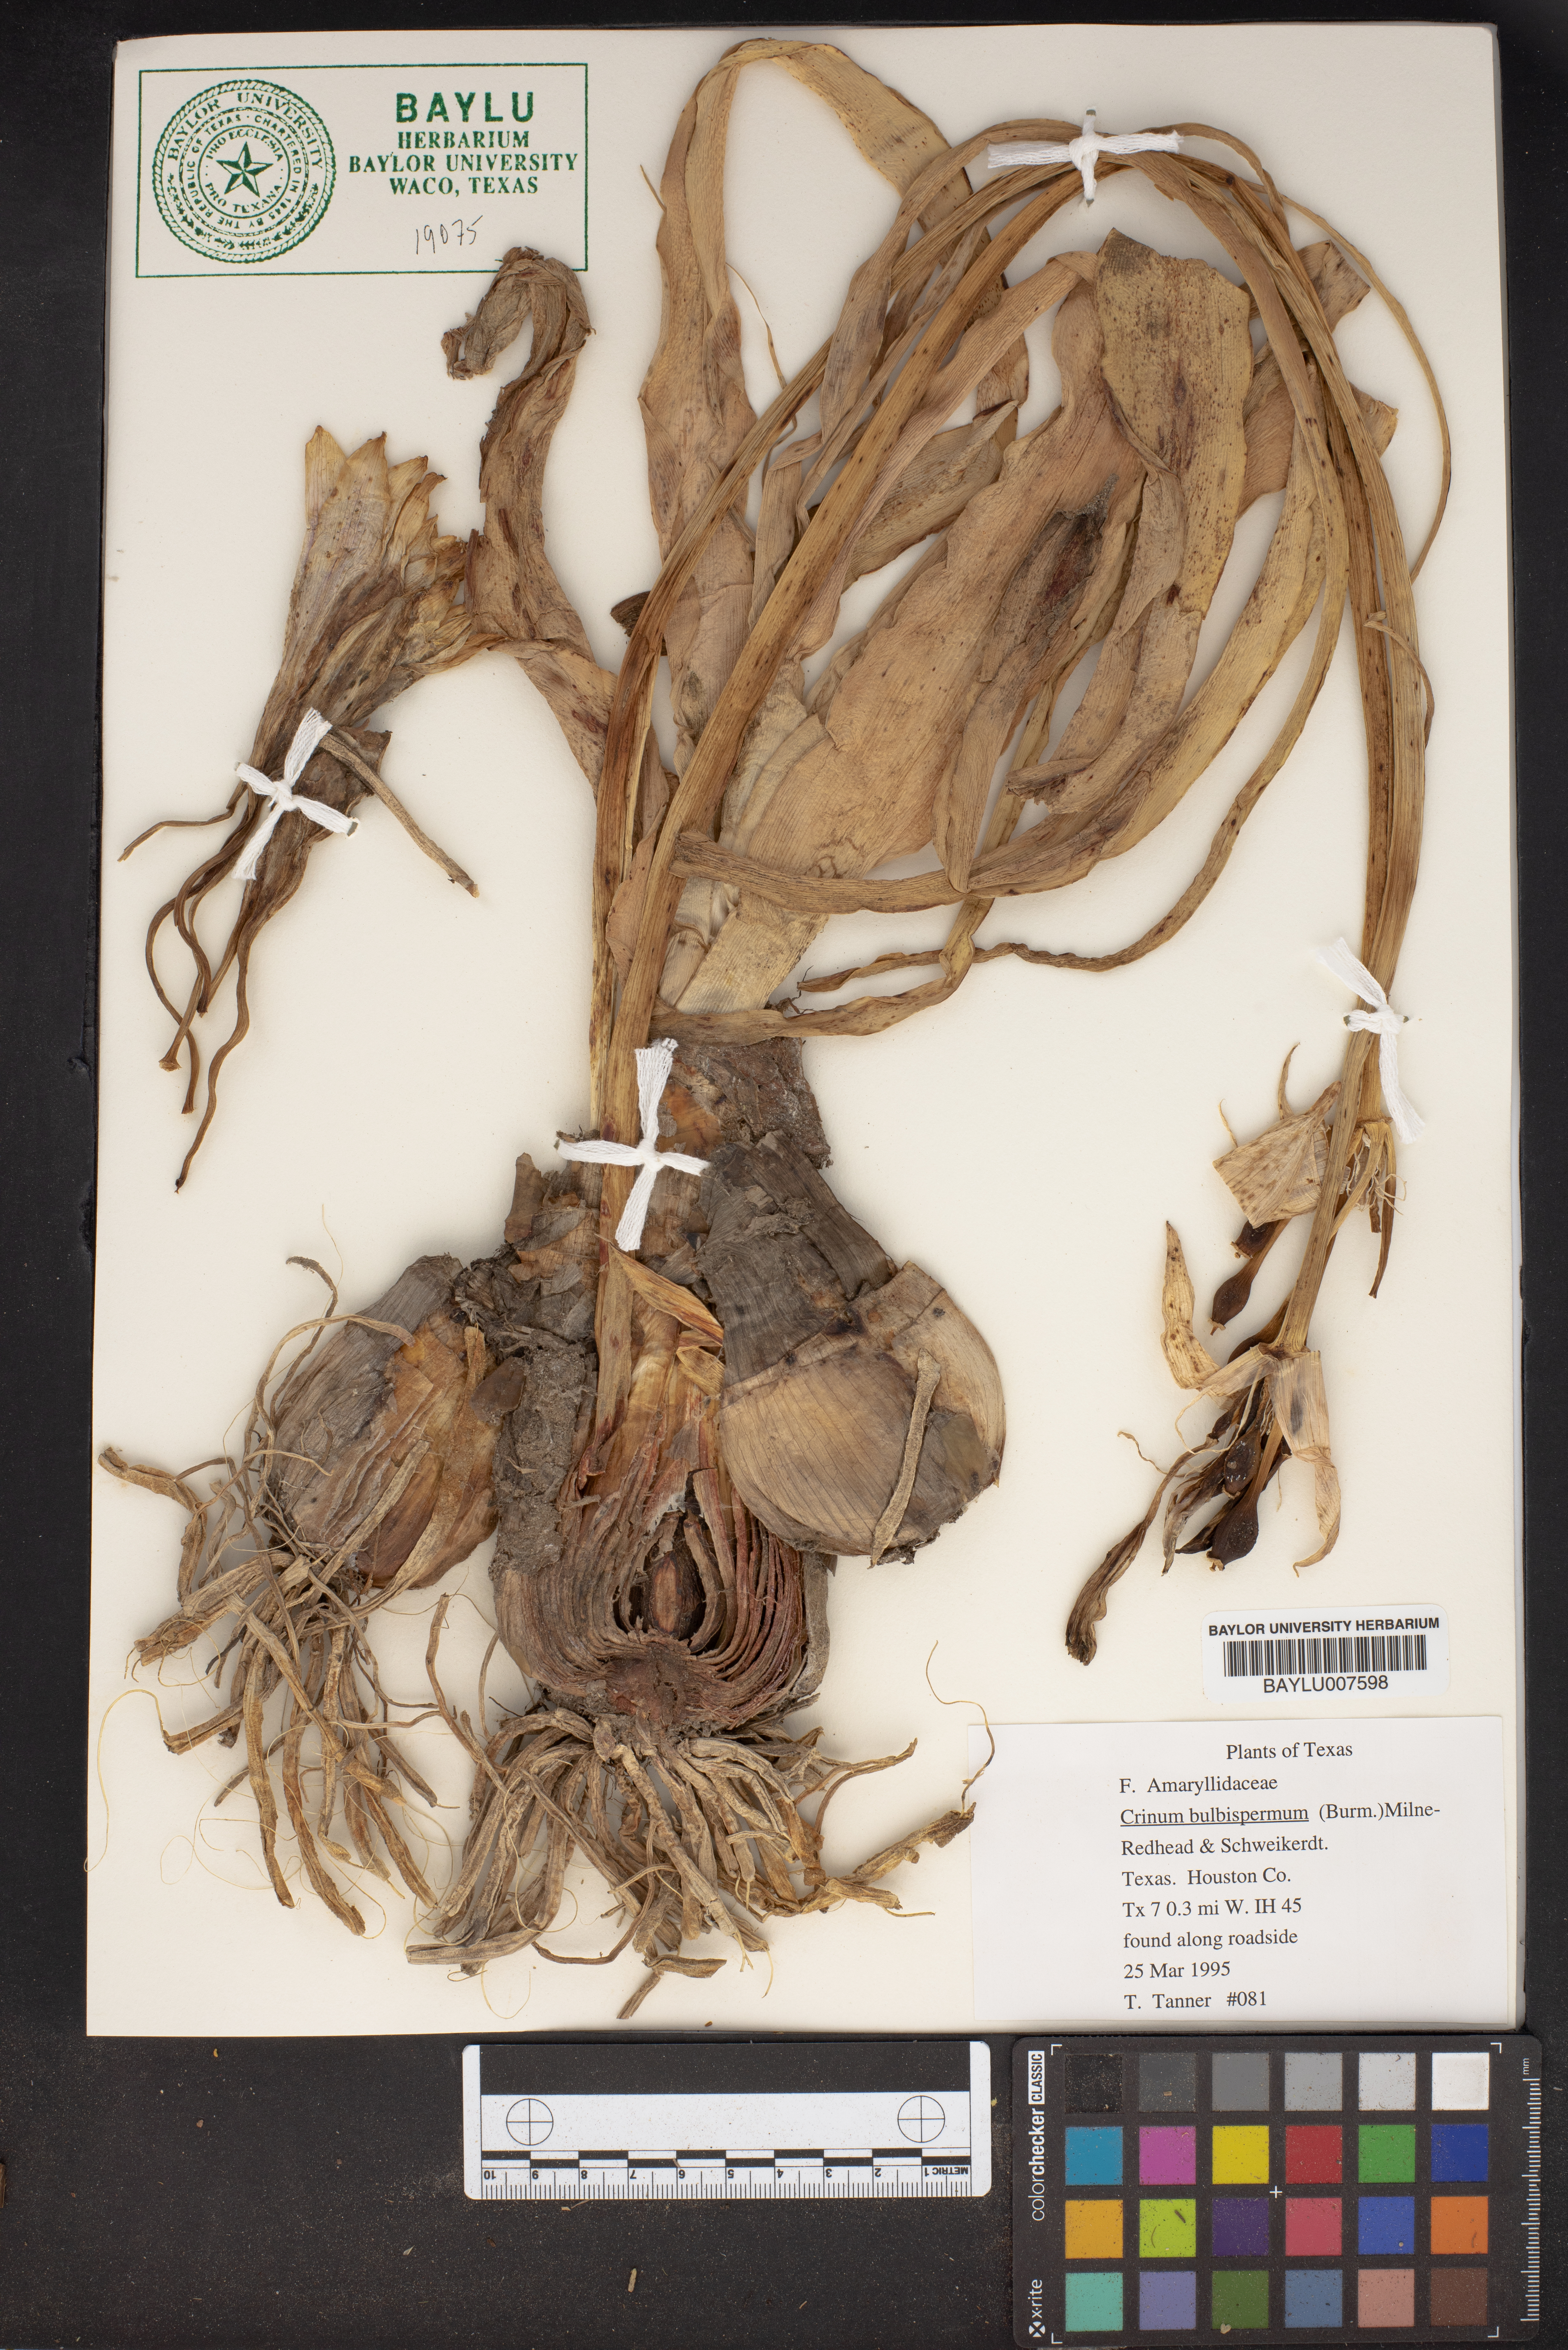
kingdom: Plantae
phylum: Tracheophyta
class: Liliopsida
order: Asparagales
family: Amaryllidaceae
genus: Crinum
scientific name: Crinum bulbispermum
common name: Hardy swamplily
